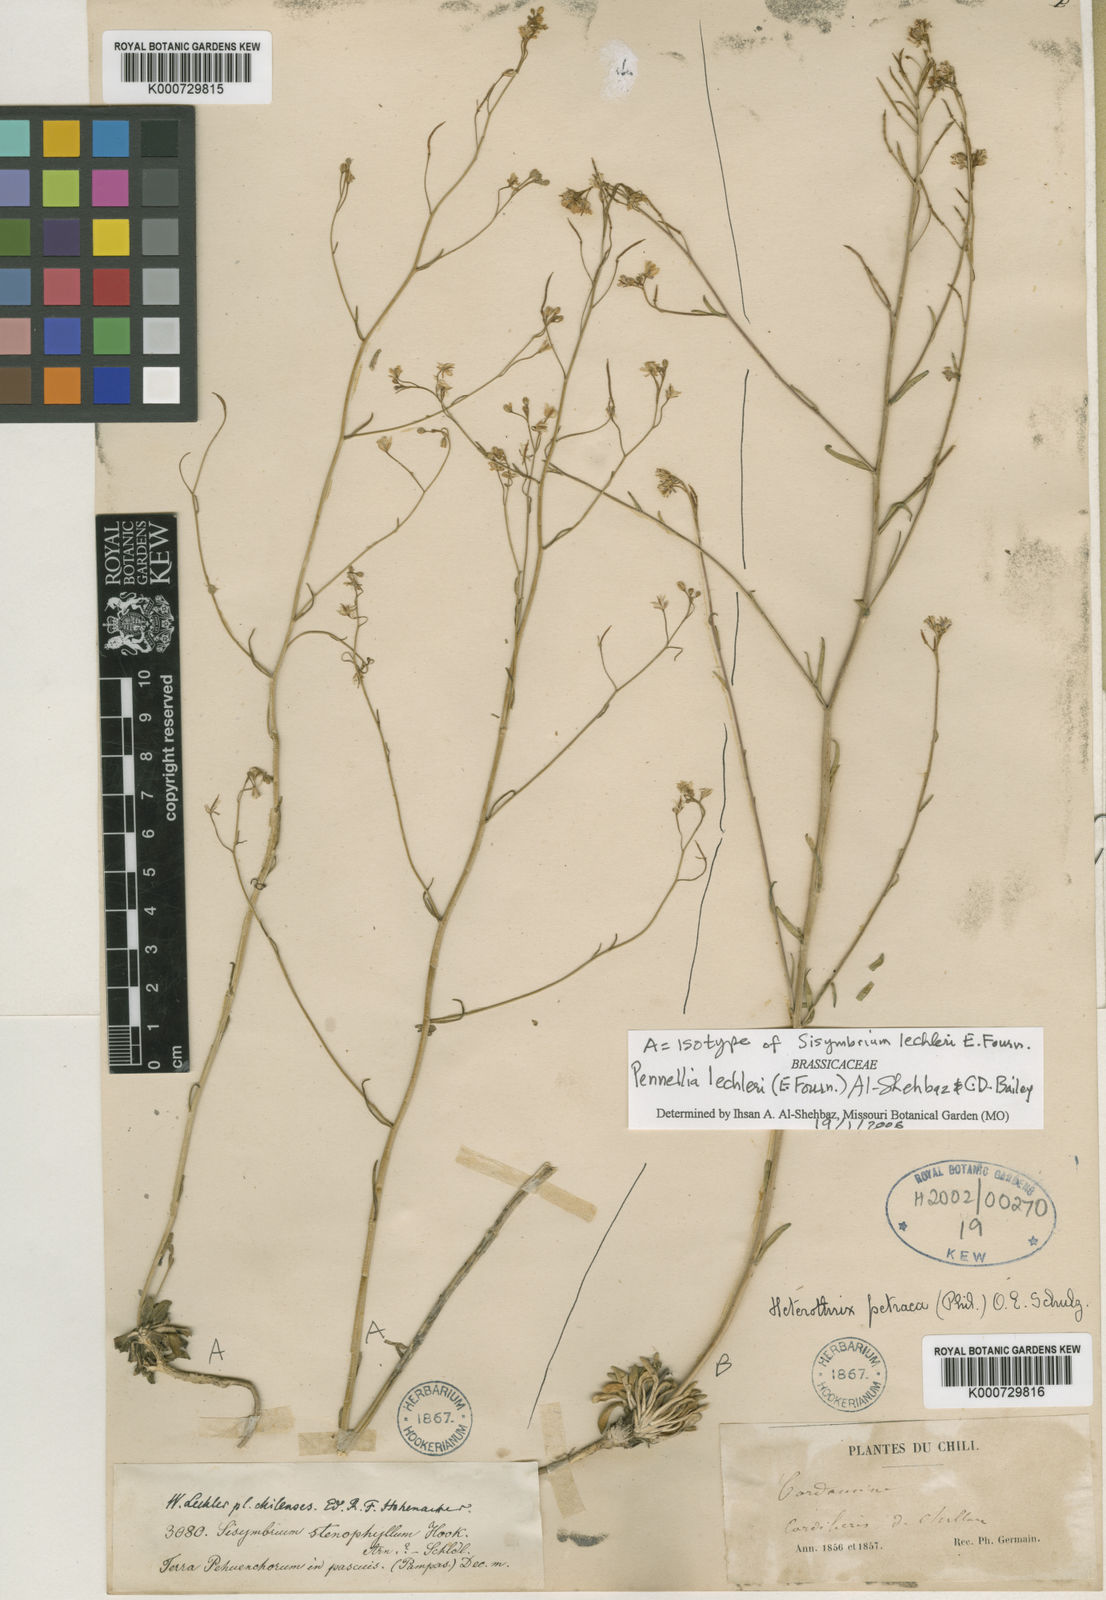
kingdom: Plantae
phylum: Tracheophyta
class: Magnoliopsida
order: Brassicales
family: Brassicaceae
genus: Mostacillastrum
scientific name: Mostacillastrum stenophyllum
